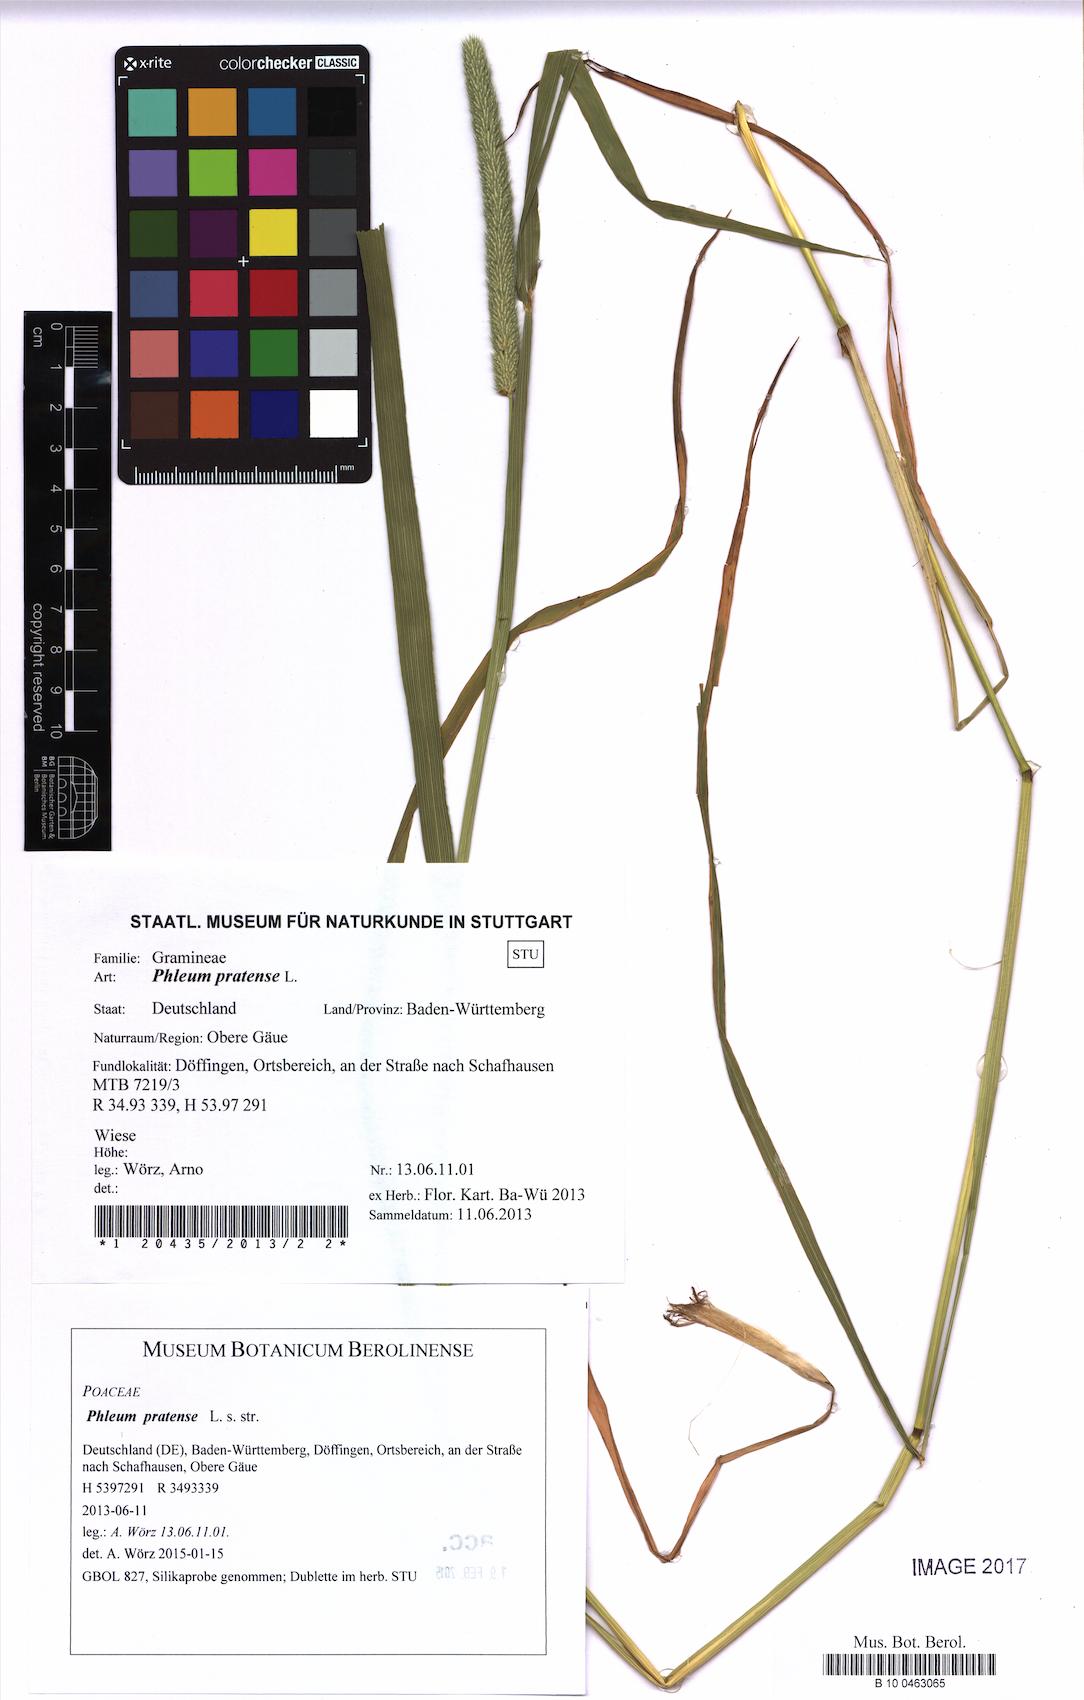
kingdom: Plantae
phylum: Tracheophyta
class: Liliopsida
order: Poales
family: Poaceae
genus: Phleum
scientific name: Phleum pratense
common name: Timothy grass
